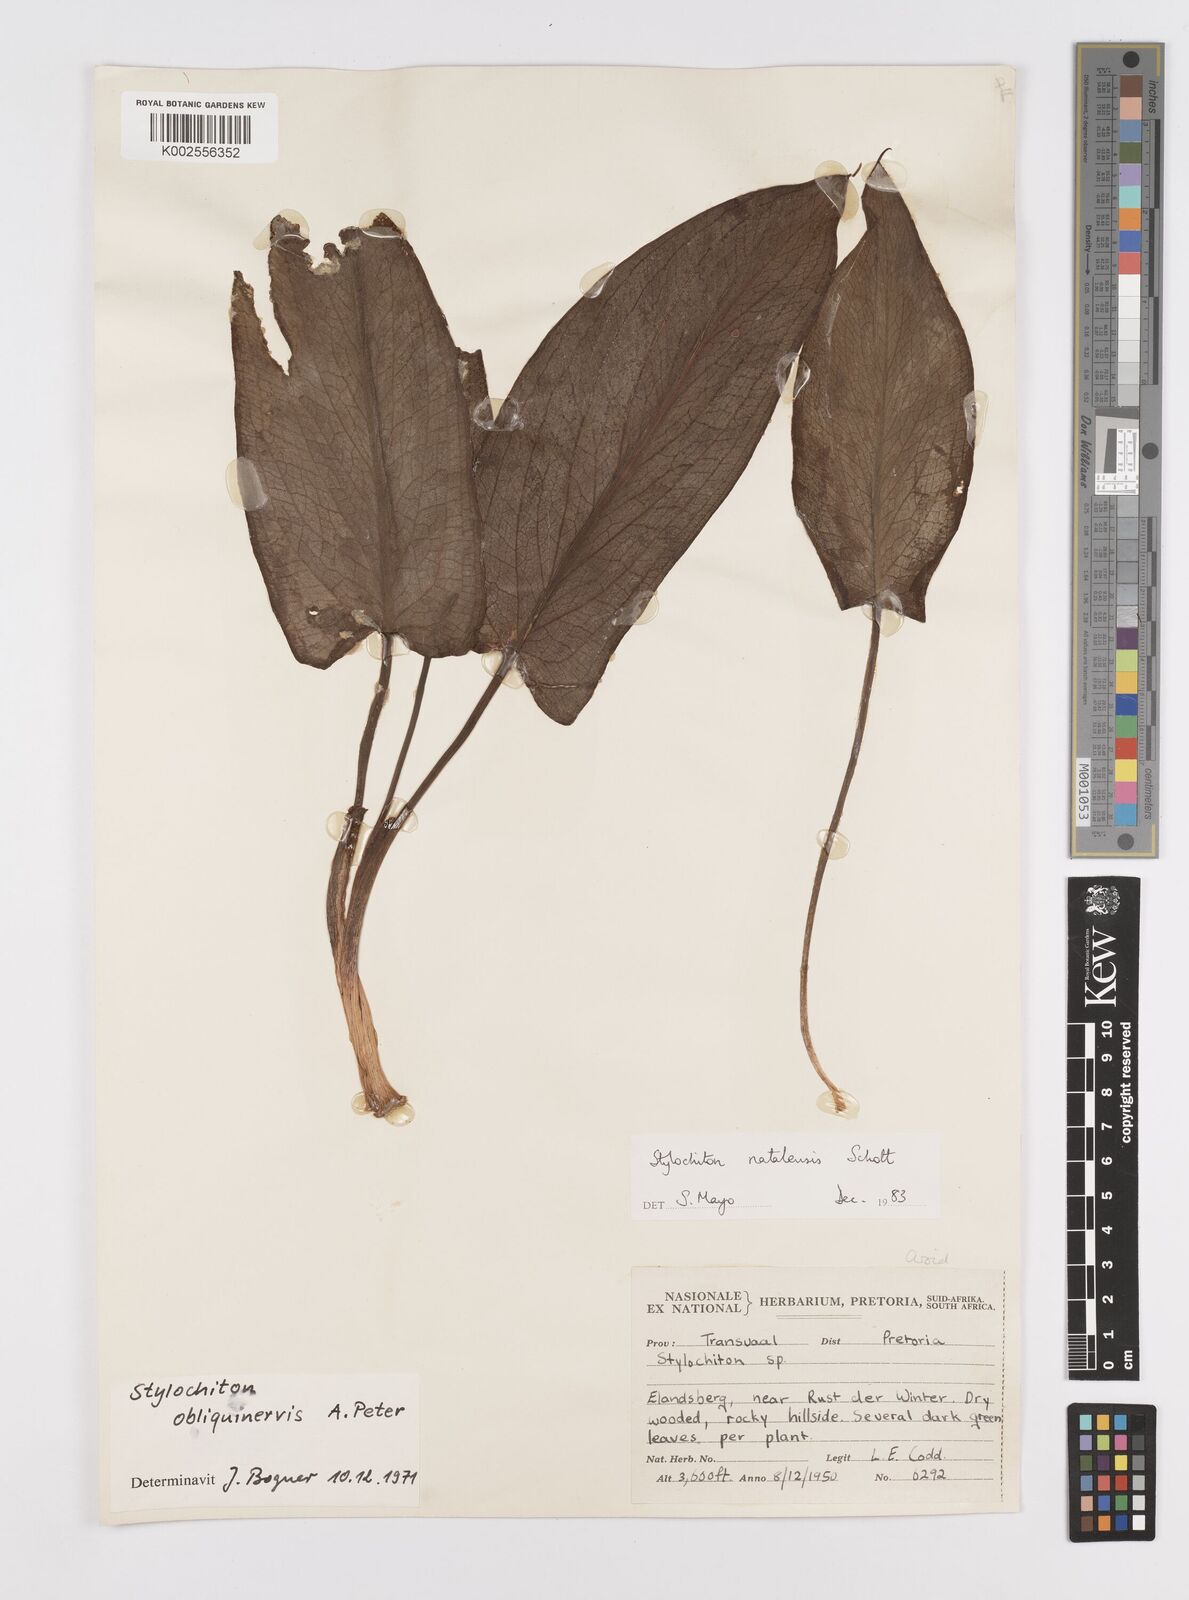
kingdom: Plantae
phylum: Tracheophyta
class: Liliopsida
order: Alismatales
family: Araceae
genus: Stylochaeton
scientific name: Stylochaeton natalense
